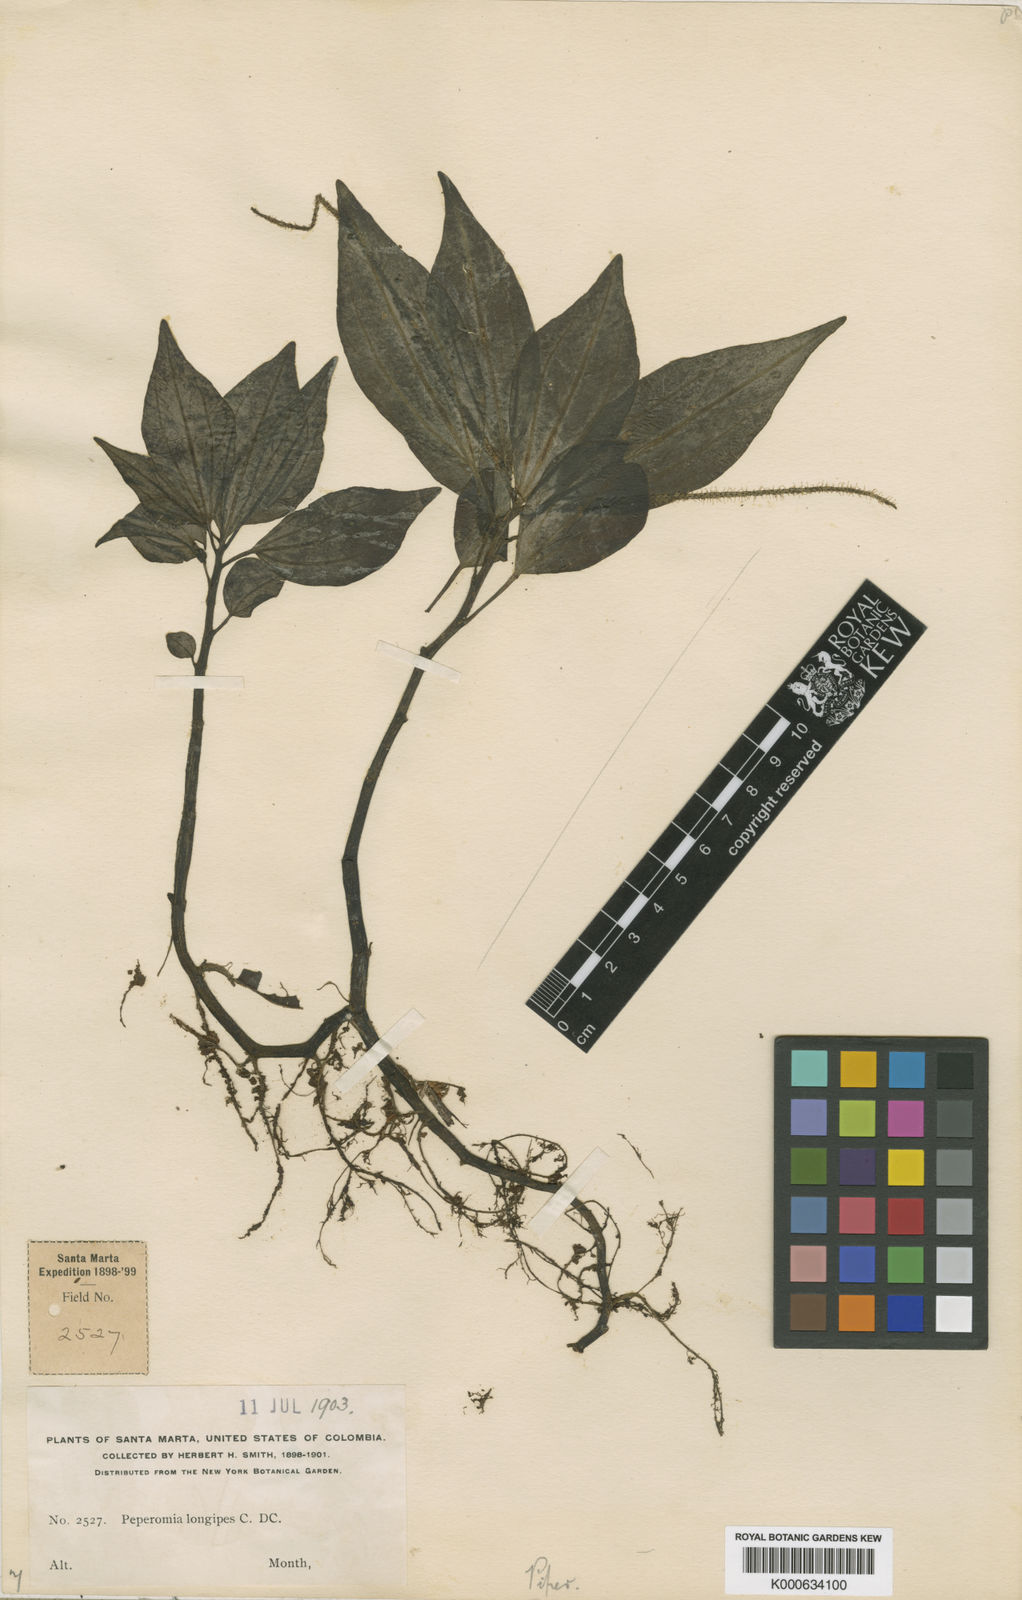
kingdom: Plantae
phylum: Tracheophyta
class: Magnoliopsida
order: Piperales
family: Piperaceae
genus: Peperomia
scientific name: Peperomia venezueliana
